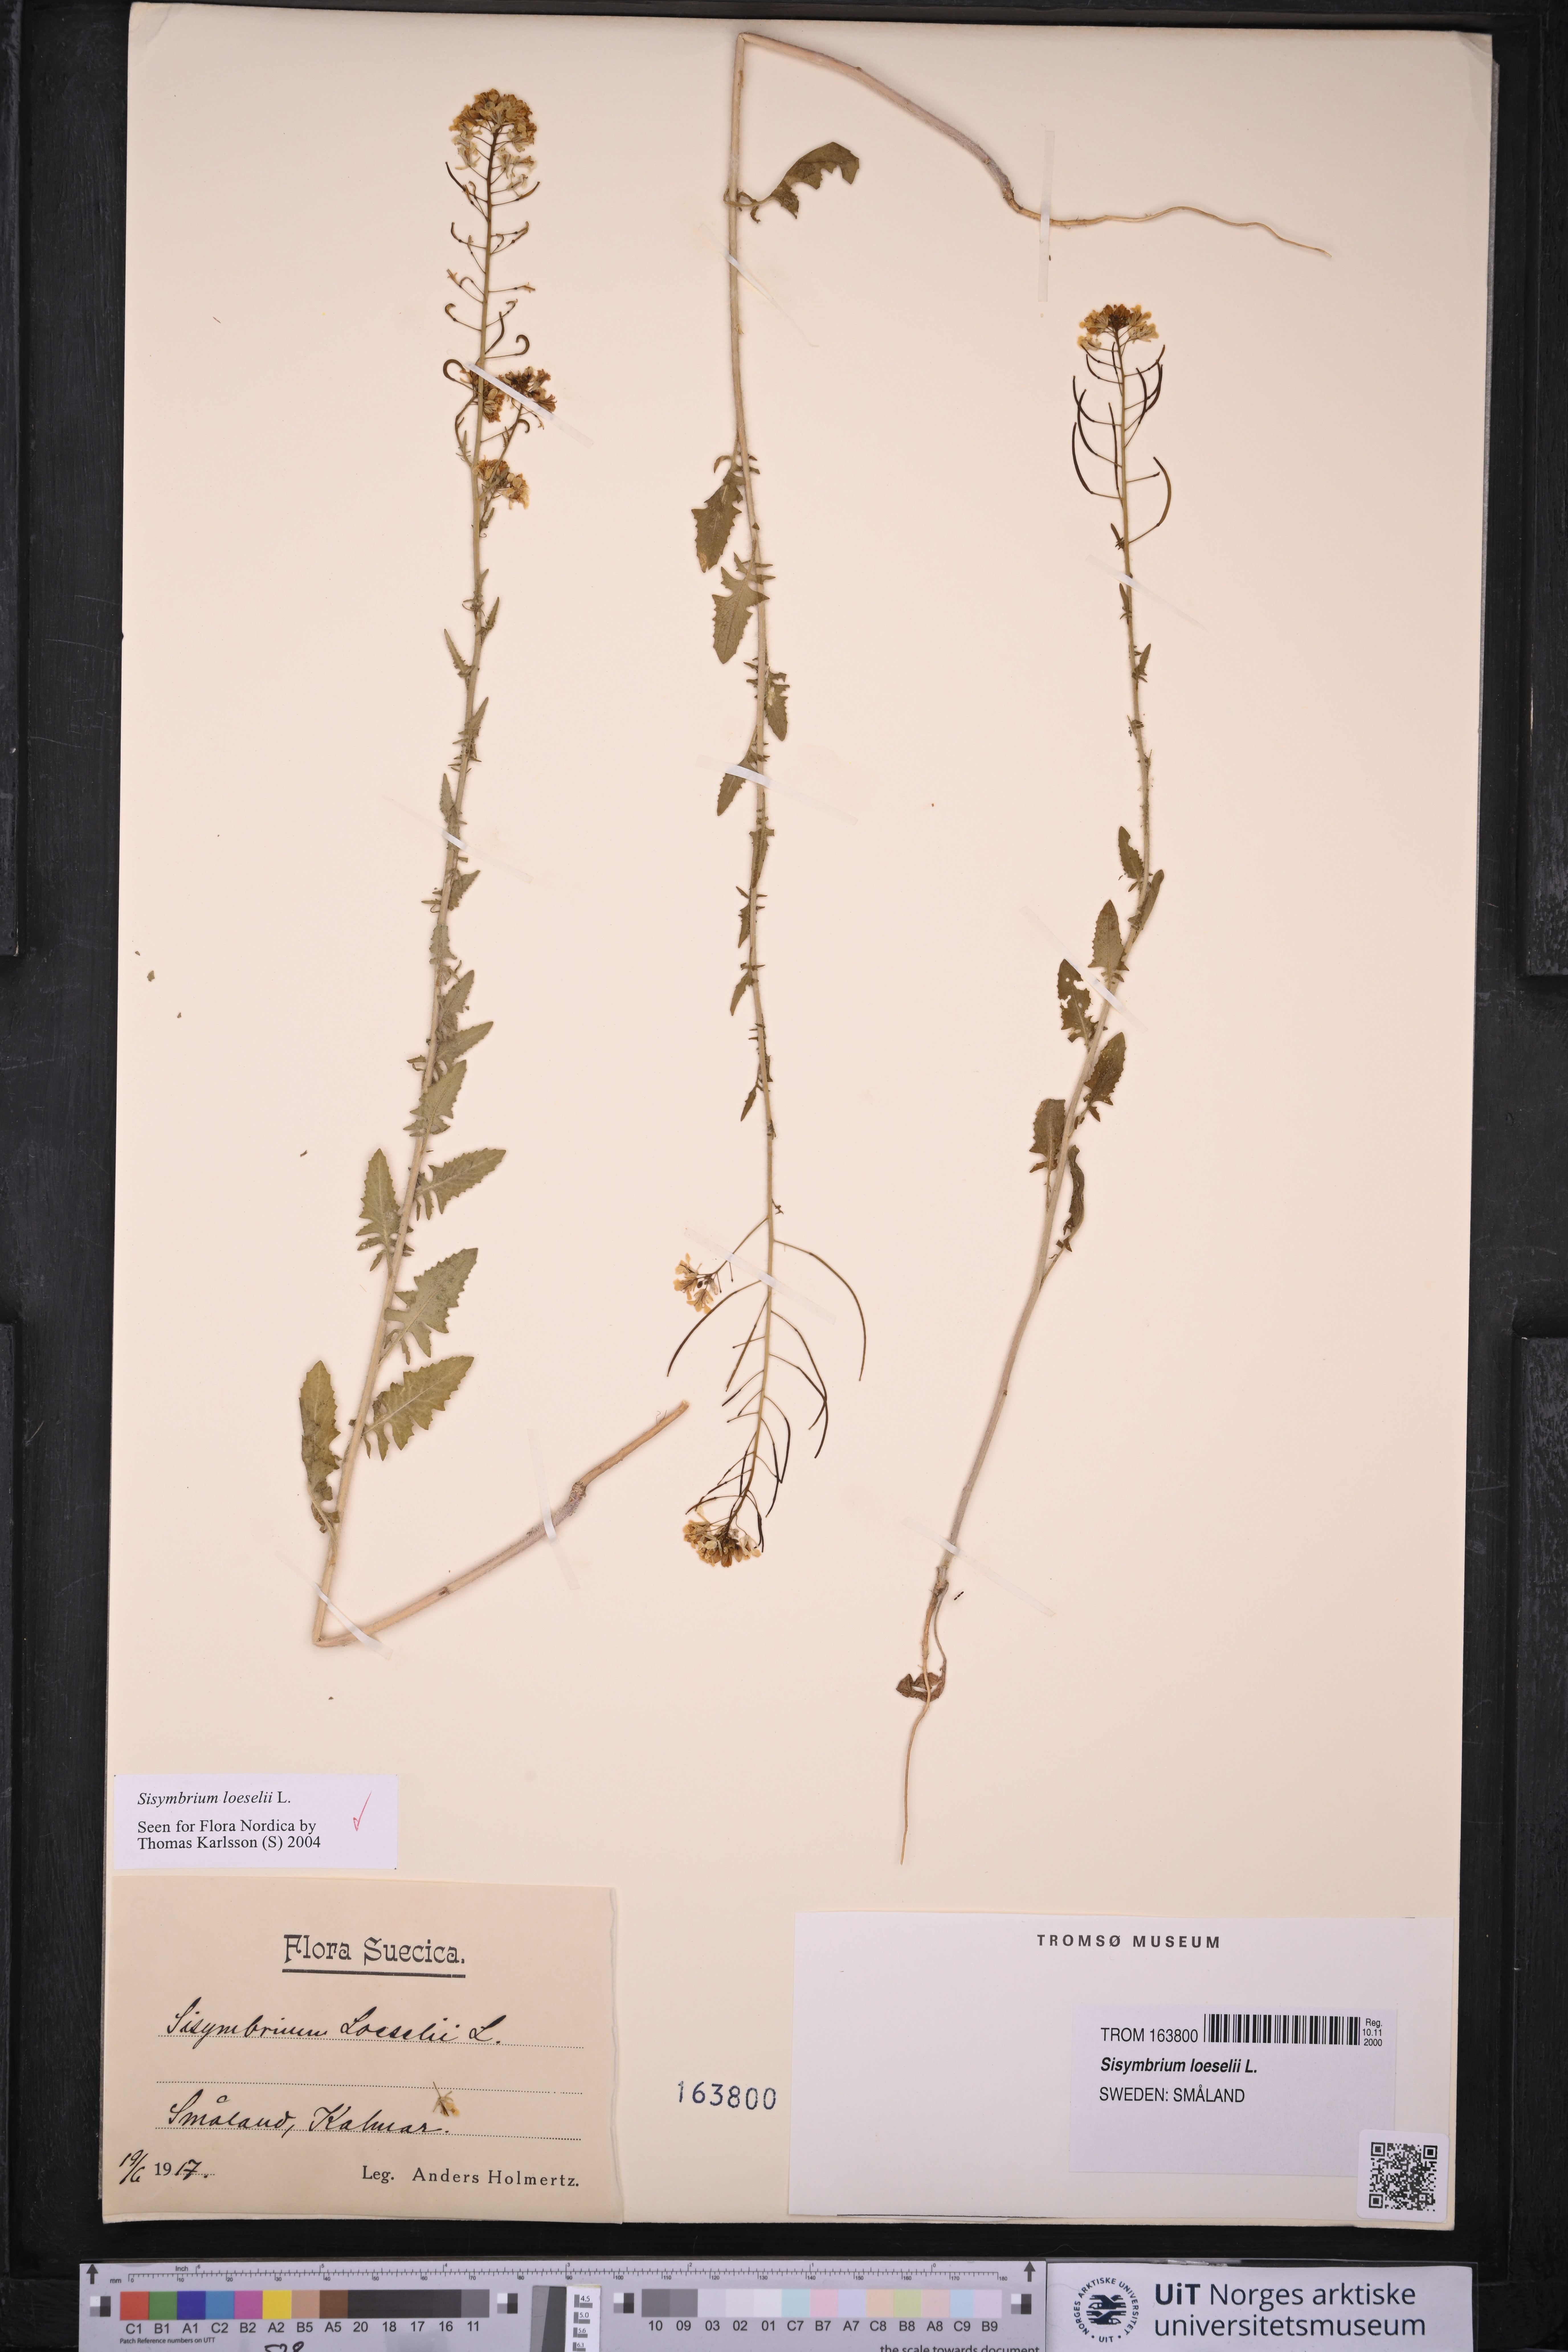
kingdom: Plantae
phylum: Tracheophyta
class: Magnoliopsida
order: Brassicales
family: Brassicaceae
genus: Sisymbrium
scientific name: Sisymbrium loeselii
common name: False london-rocket
